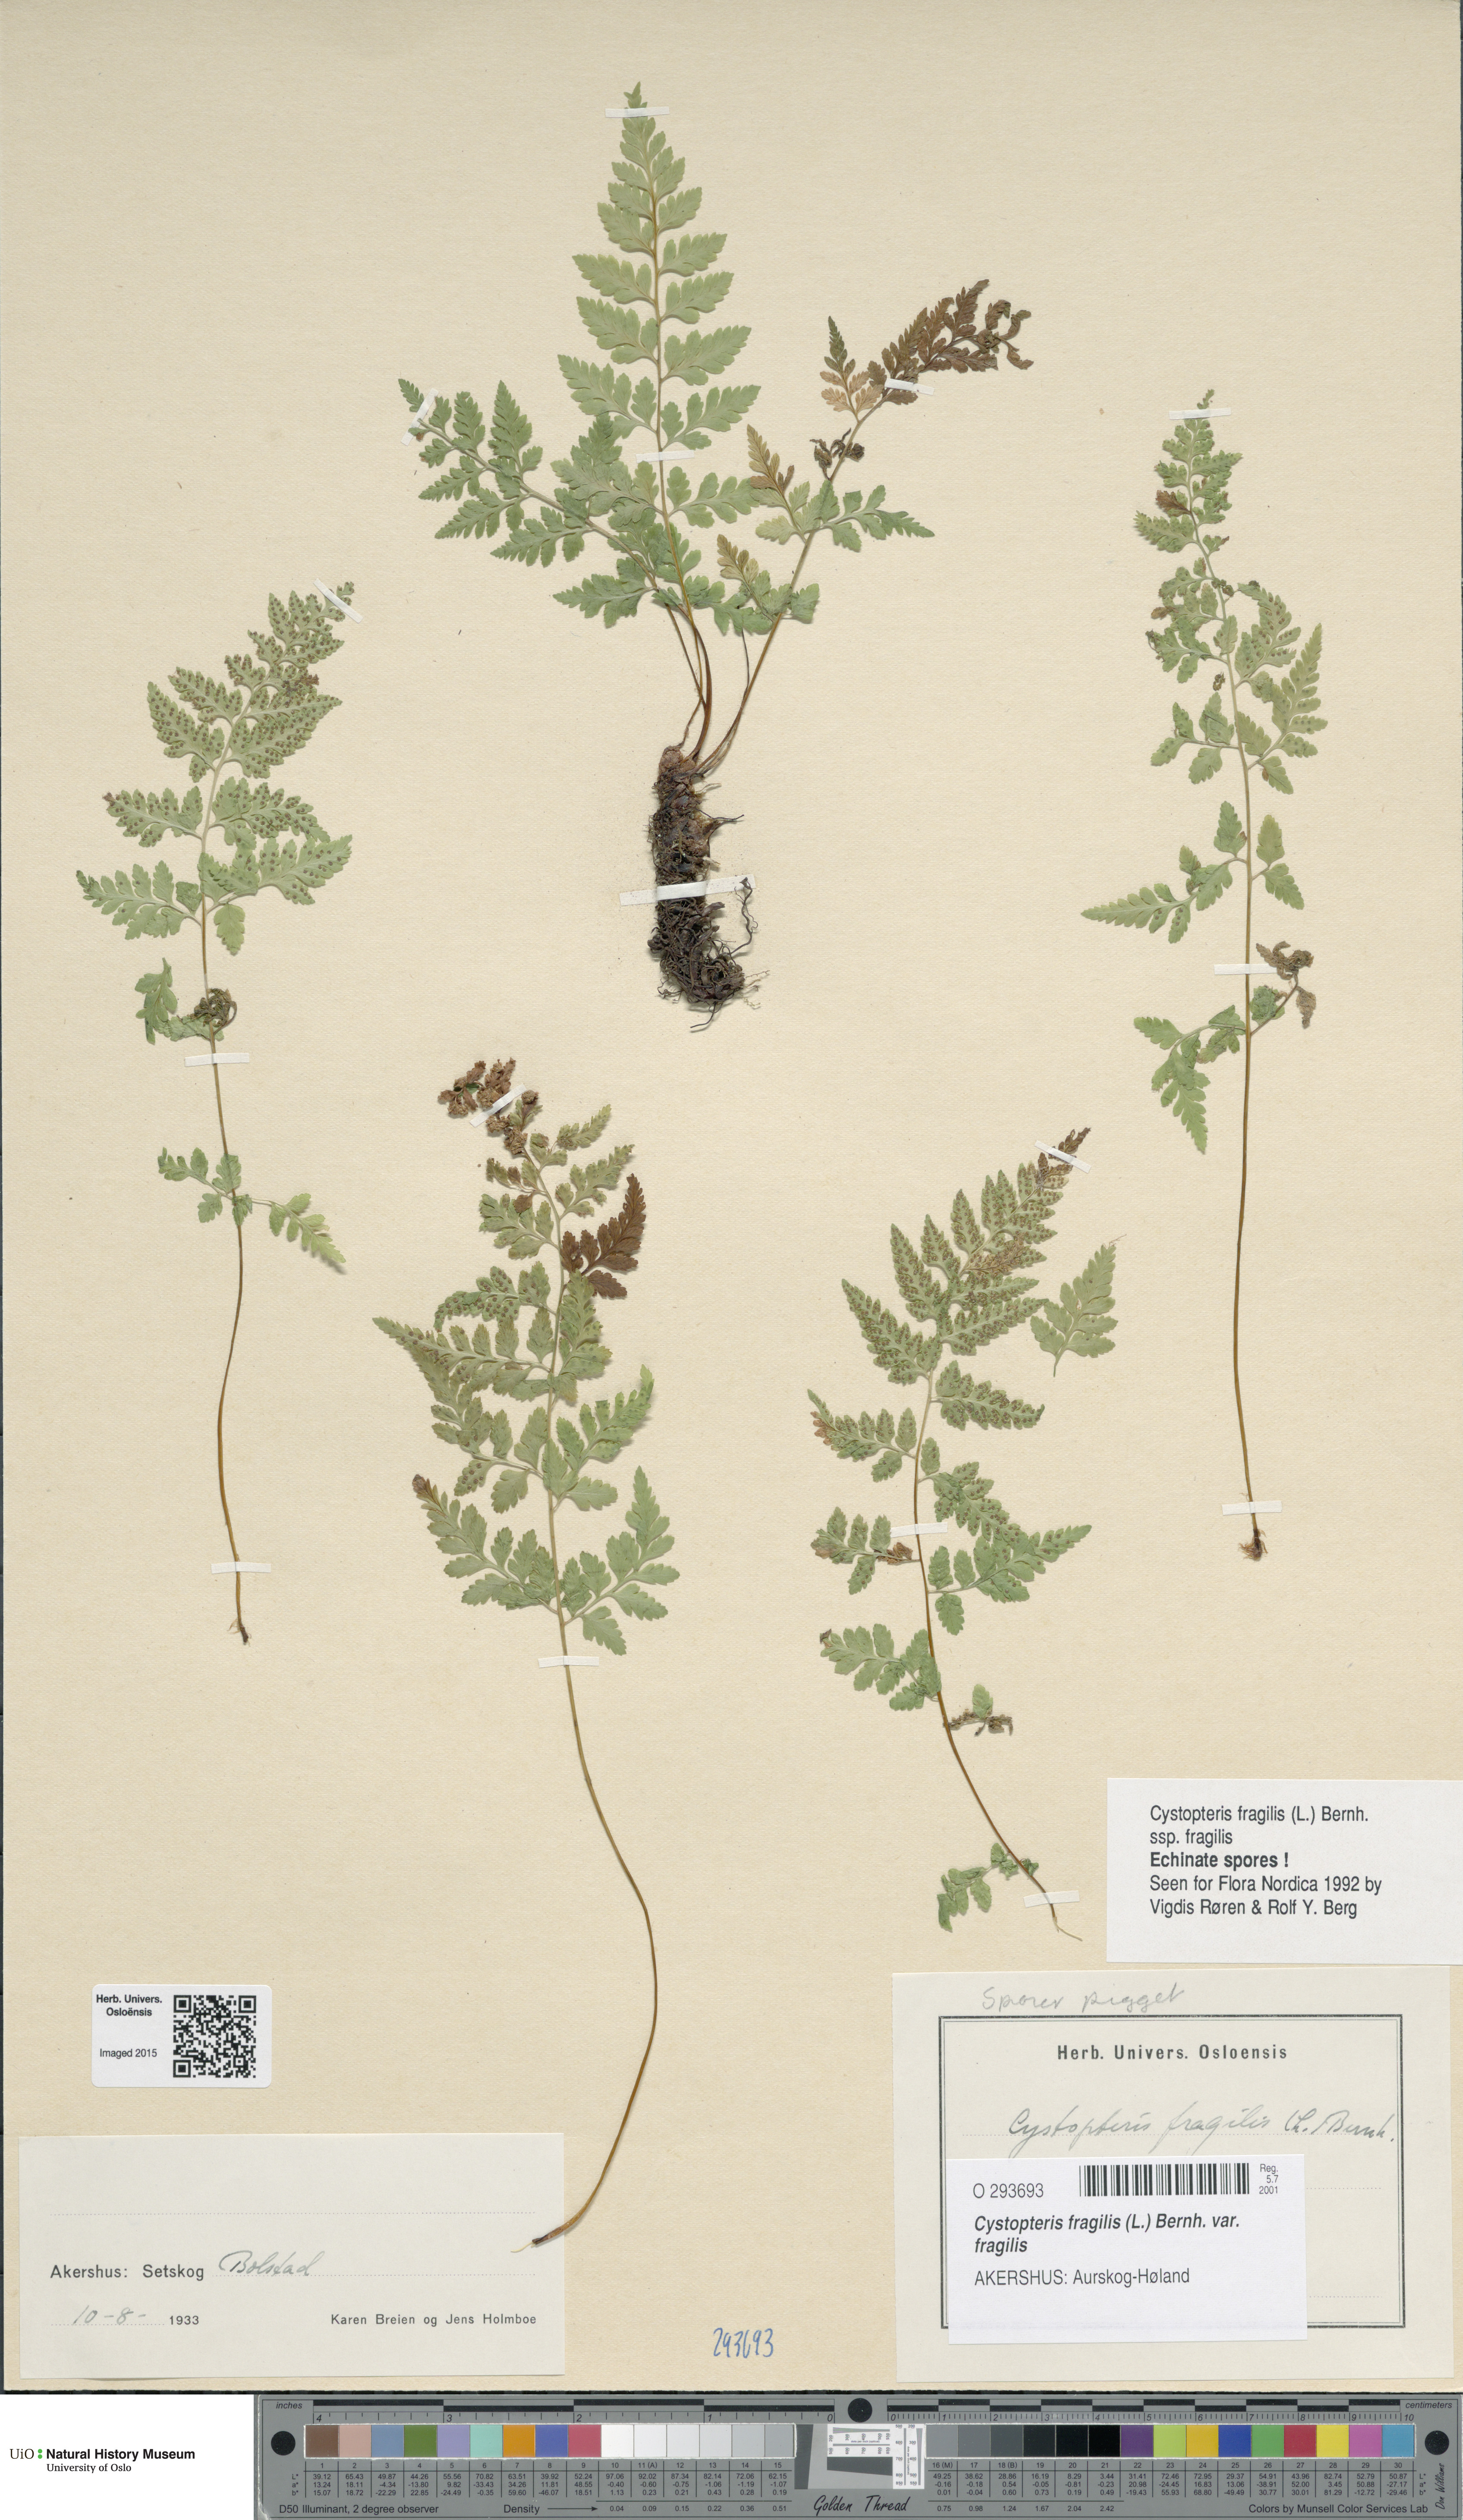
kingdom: Plantae
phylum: Tracheophyta
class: Polypodiopsida
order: Polypodiales
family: Cystopteridaceae
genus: Cystopteris
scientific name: Cystopteris fragilis
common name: Brittle bladder fern
